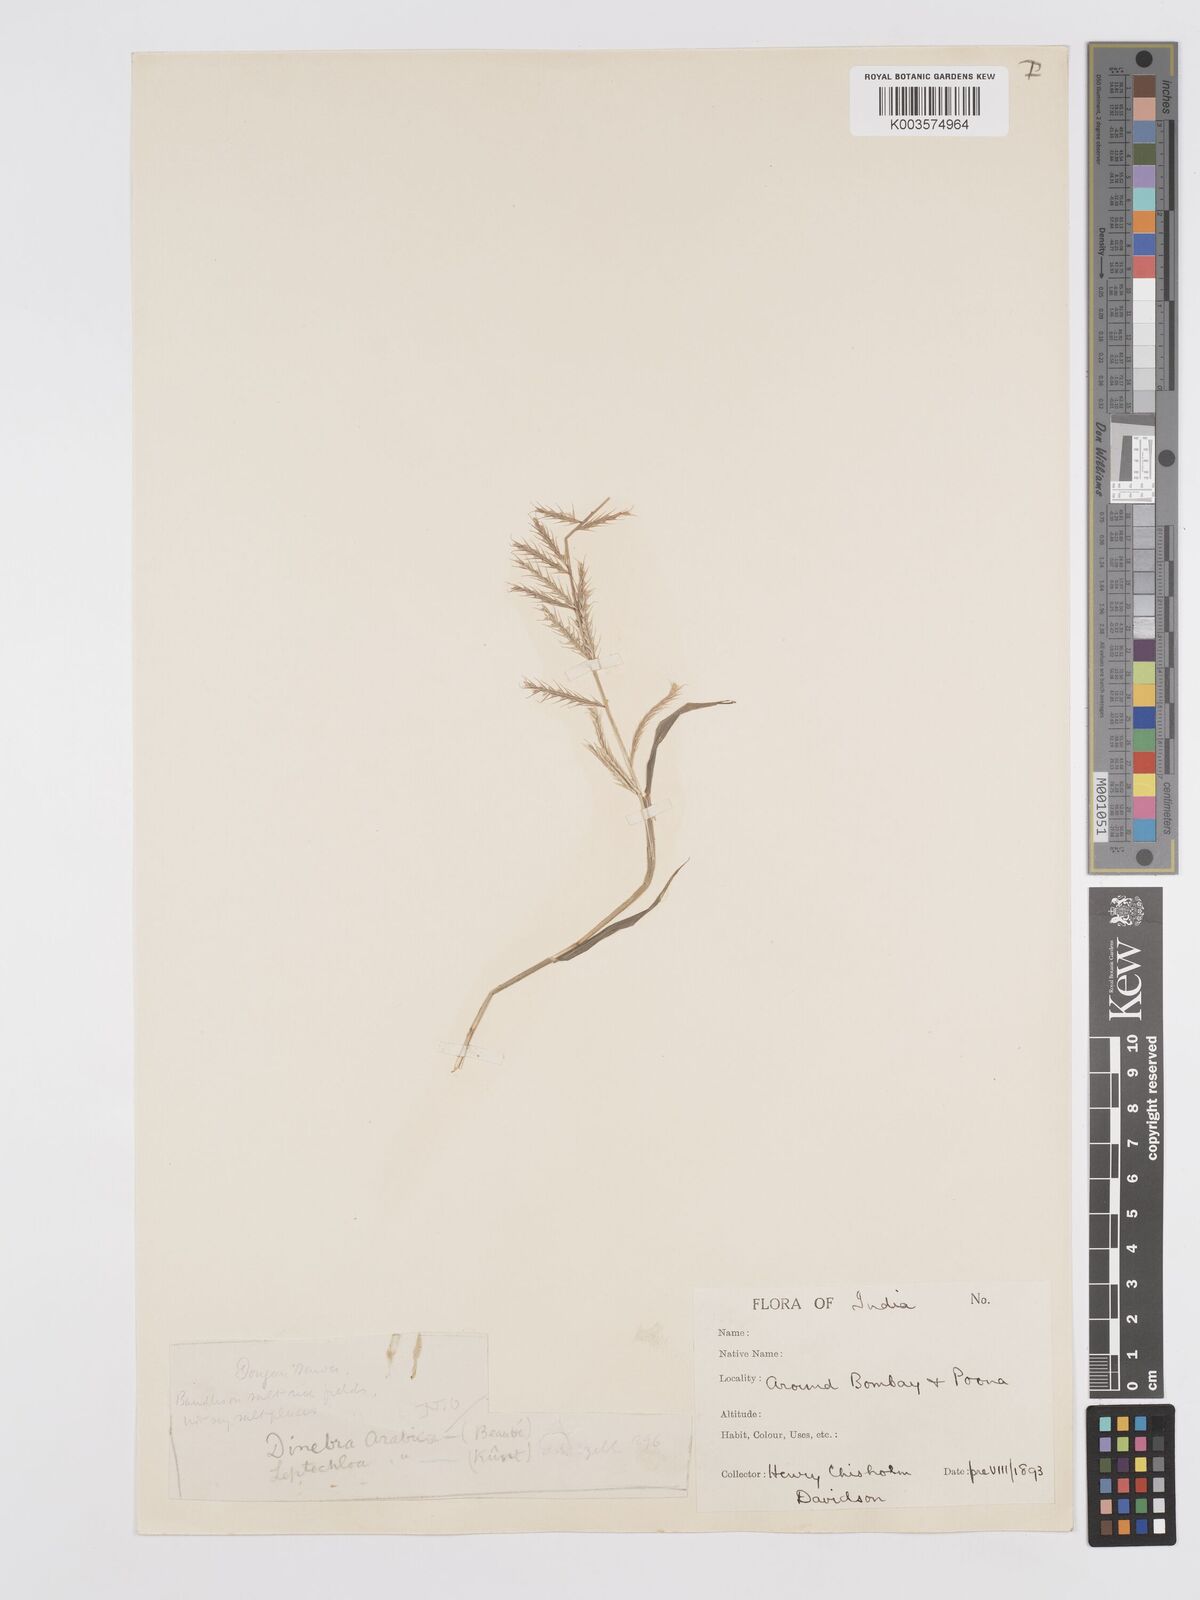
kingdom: Plantae
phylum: Tracheophyta
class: Liliopsida
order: Poales
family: Poaceae
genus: Dinebra
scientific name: Dinebra retroflexa
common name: Viper grass
